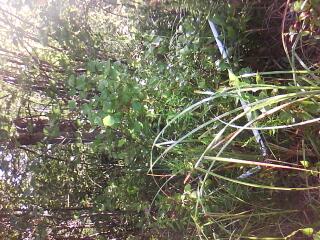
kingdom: Plantae
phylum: Tracheophyta
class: Magnoliopsida
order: Asterales
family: Asteraceae
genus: Eutrochium
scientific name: Eutrochium maculatum
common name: Spotted joe pye weed
